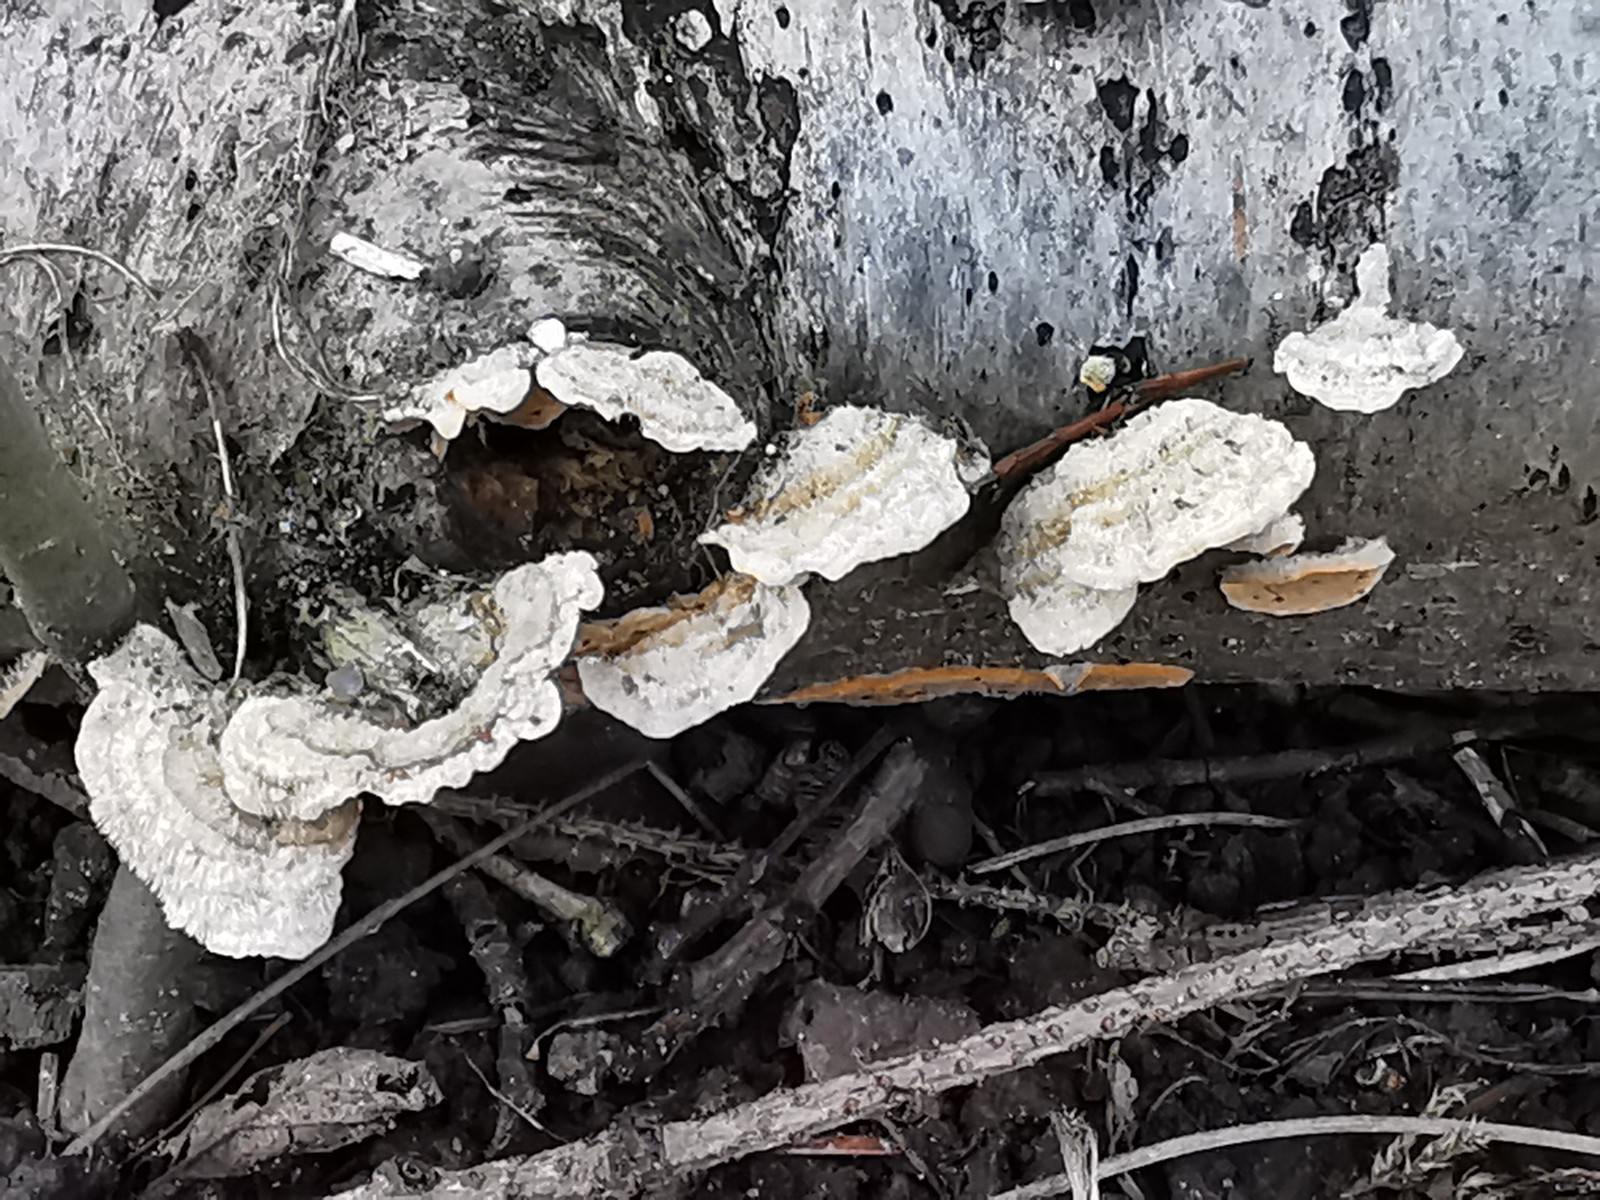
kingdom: Fungi
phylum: Basidiomycota
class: Agaricomycetes
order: Russulales
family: Stereaceae
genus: Stereum
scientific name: Stereum hirsutum
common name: håret lædersvamp
